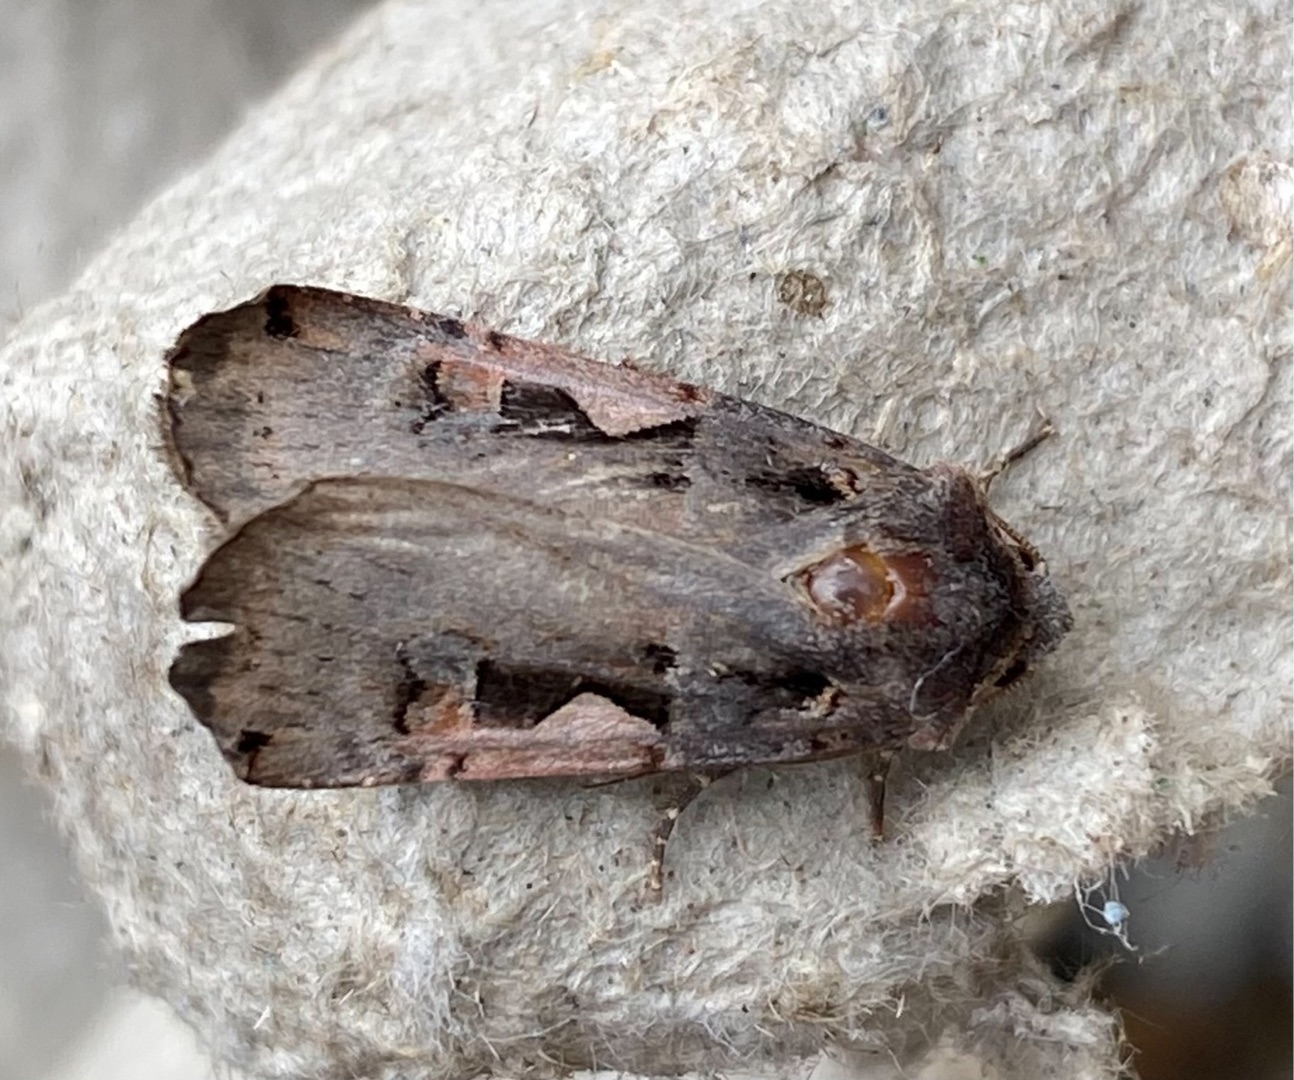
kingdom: Animalia
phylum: Arthropoda
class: Insecta
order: Lepidoptera
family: Noctuidae
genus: Xestia
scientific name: Xestia c-nigrum
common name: Det sorte c
